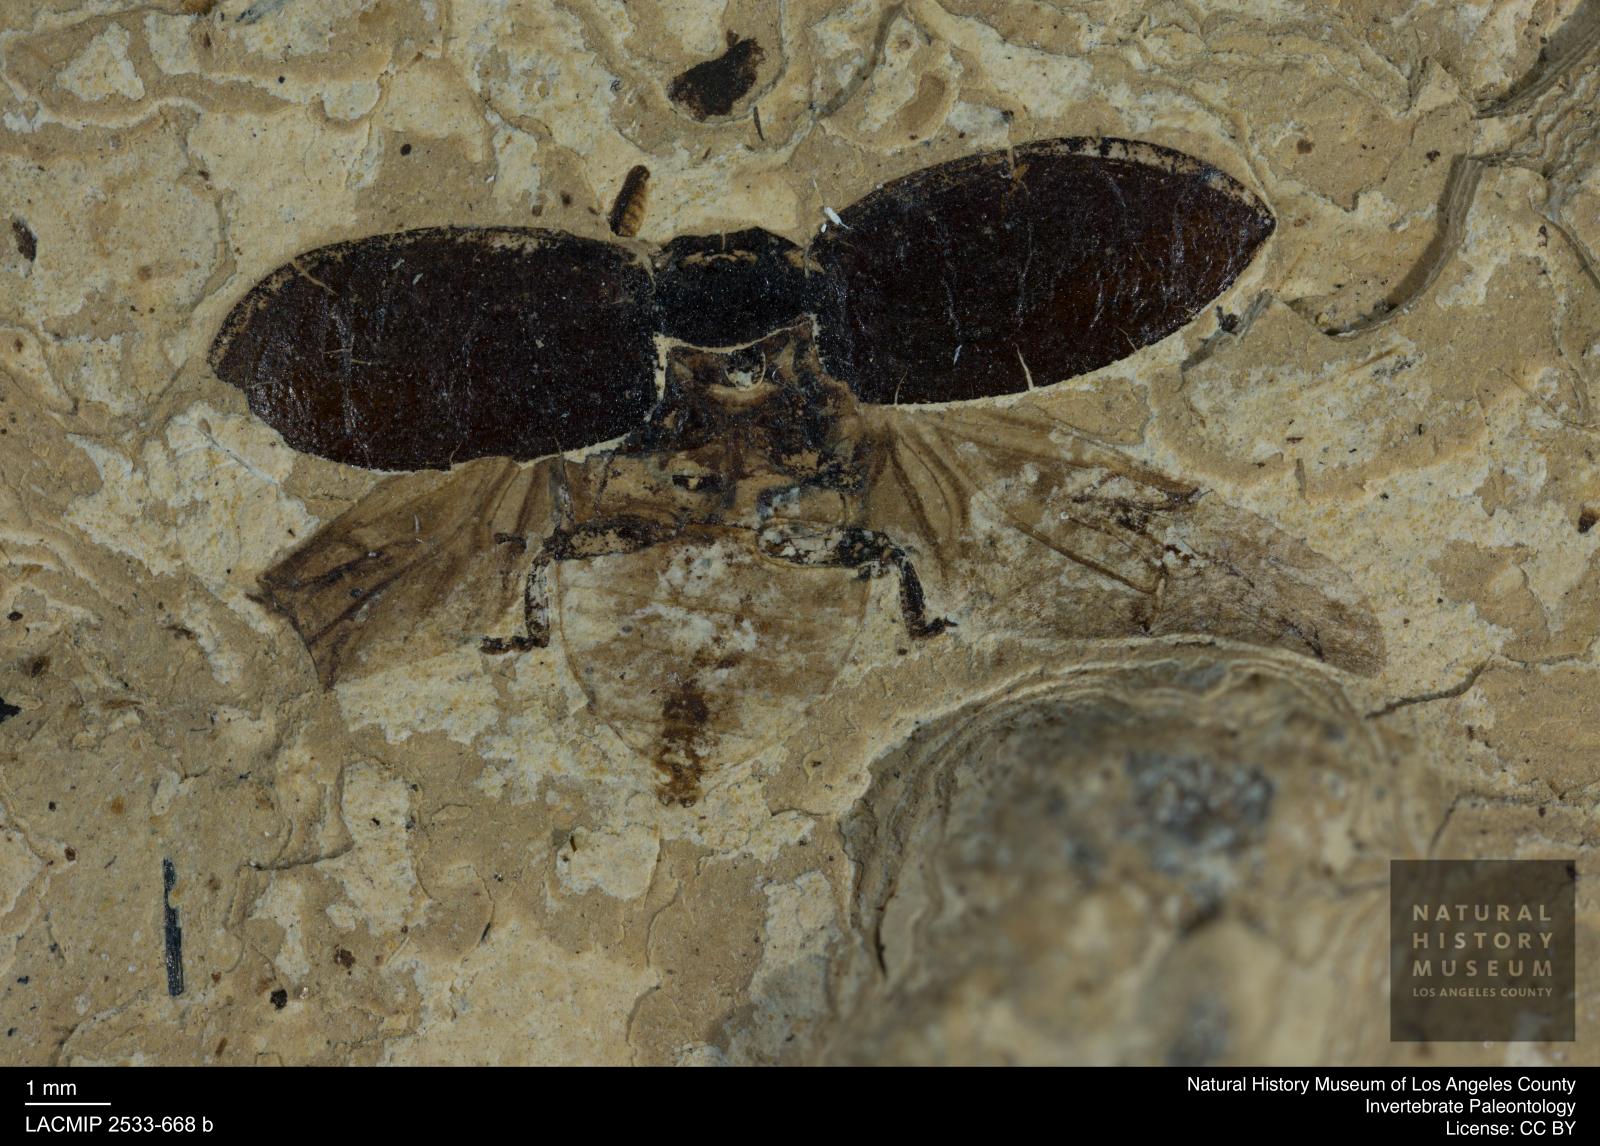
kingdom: Animalia
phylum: Arthropoda
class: Insecta
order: Coleoptera
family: Coccinellidae
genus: Coccinella
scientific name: Coccinella
